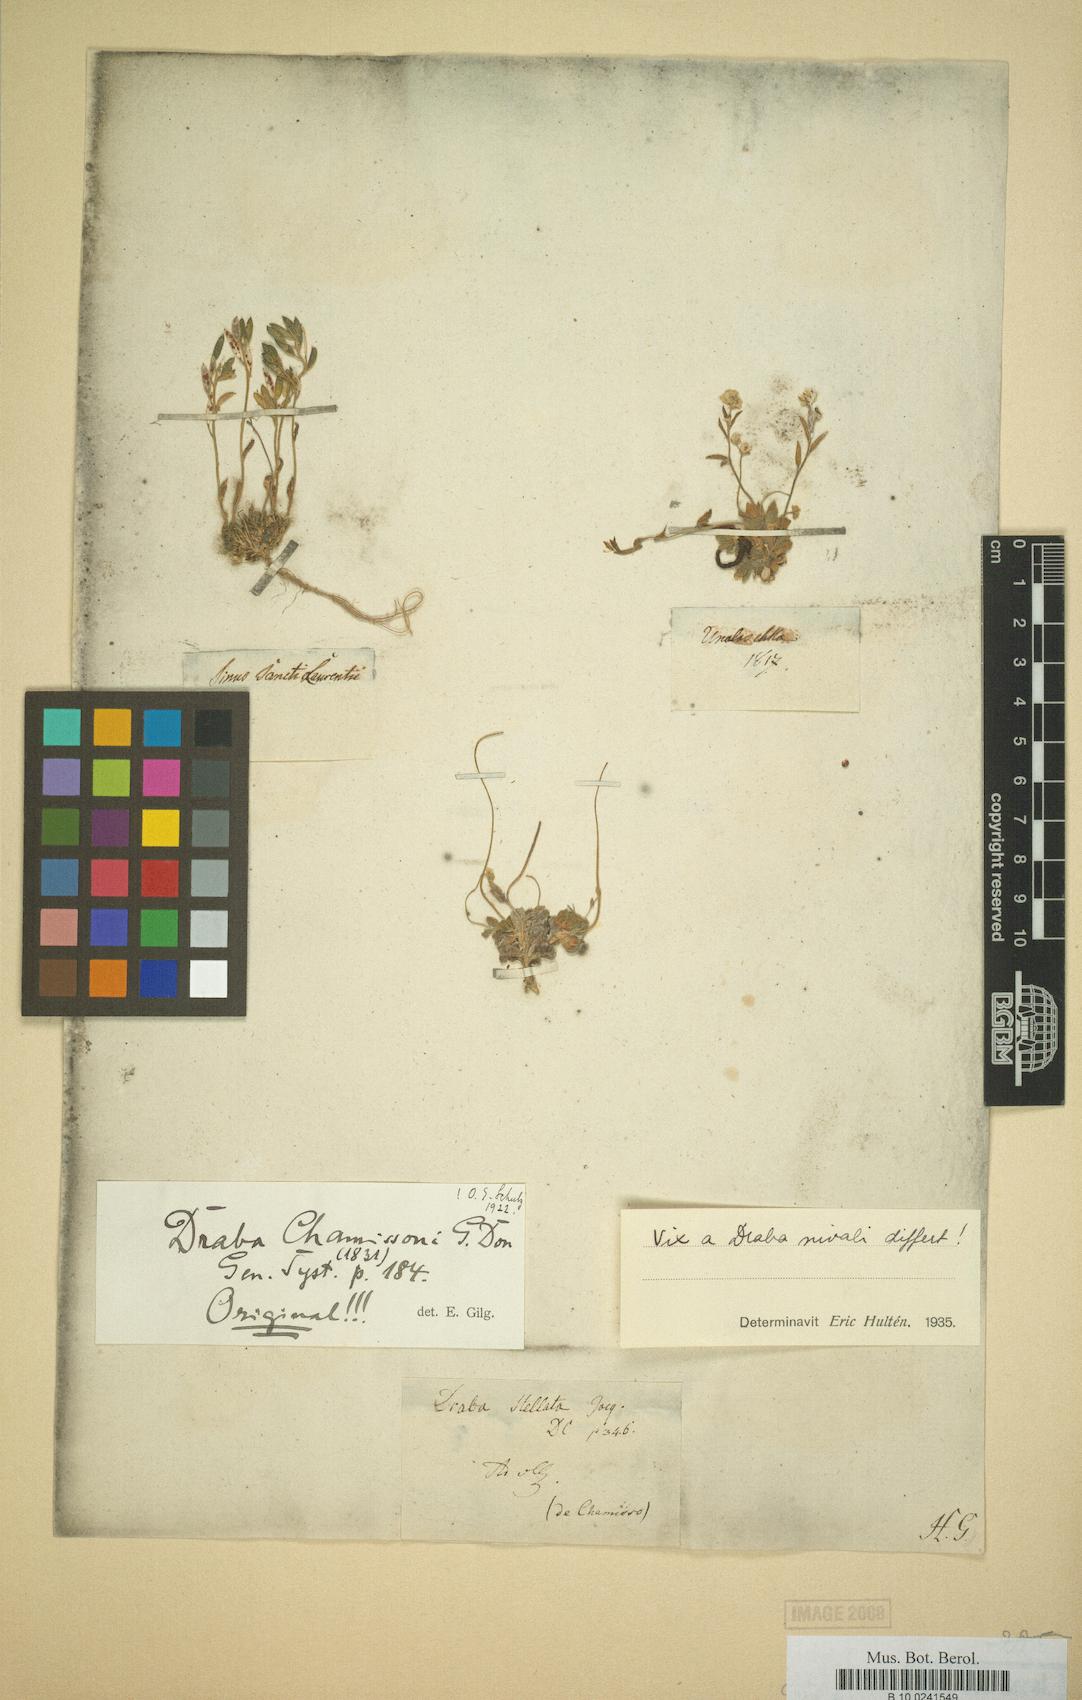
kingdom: Plantae
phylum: Tracheophyta
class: Magnoliopsida
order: Brassicales
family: Brassicaceae
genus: Draba
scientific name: Draba chamissonis
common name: Cape thompson draba
